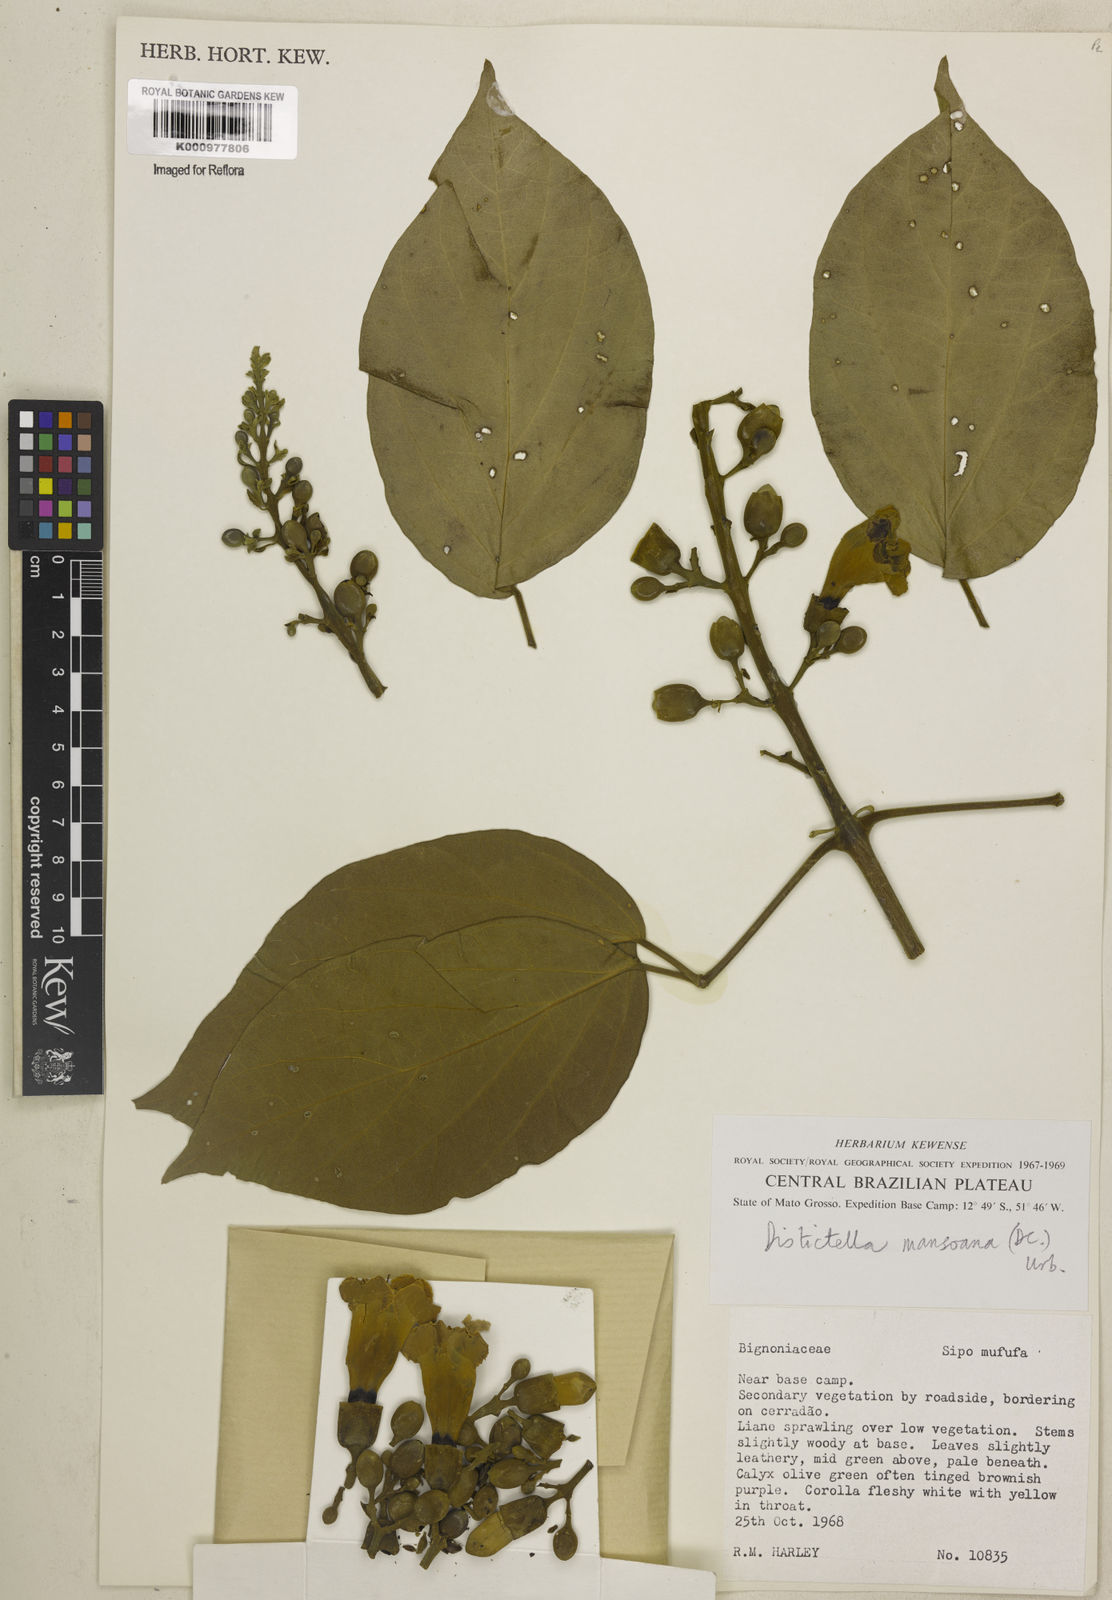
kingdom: Plantae
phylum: Tracheophyta
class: Magnoliopsida
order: Lamiales
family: Bignoniaceae
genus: Amphilophium
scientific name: Amphilophium mansoanum
